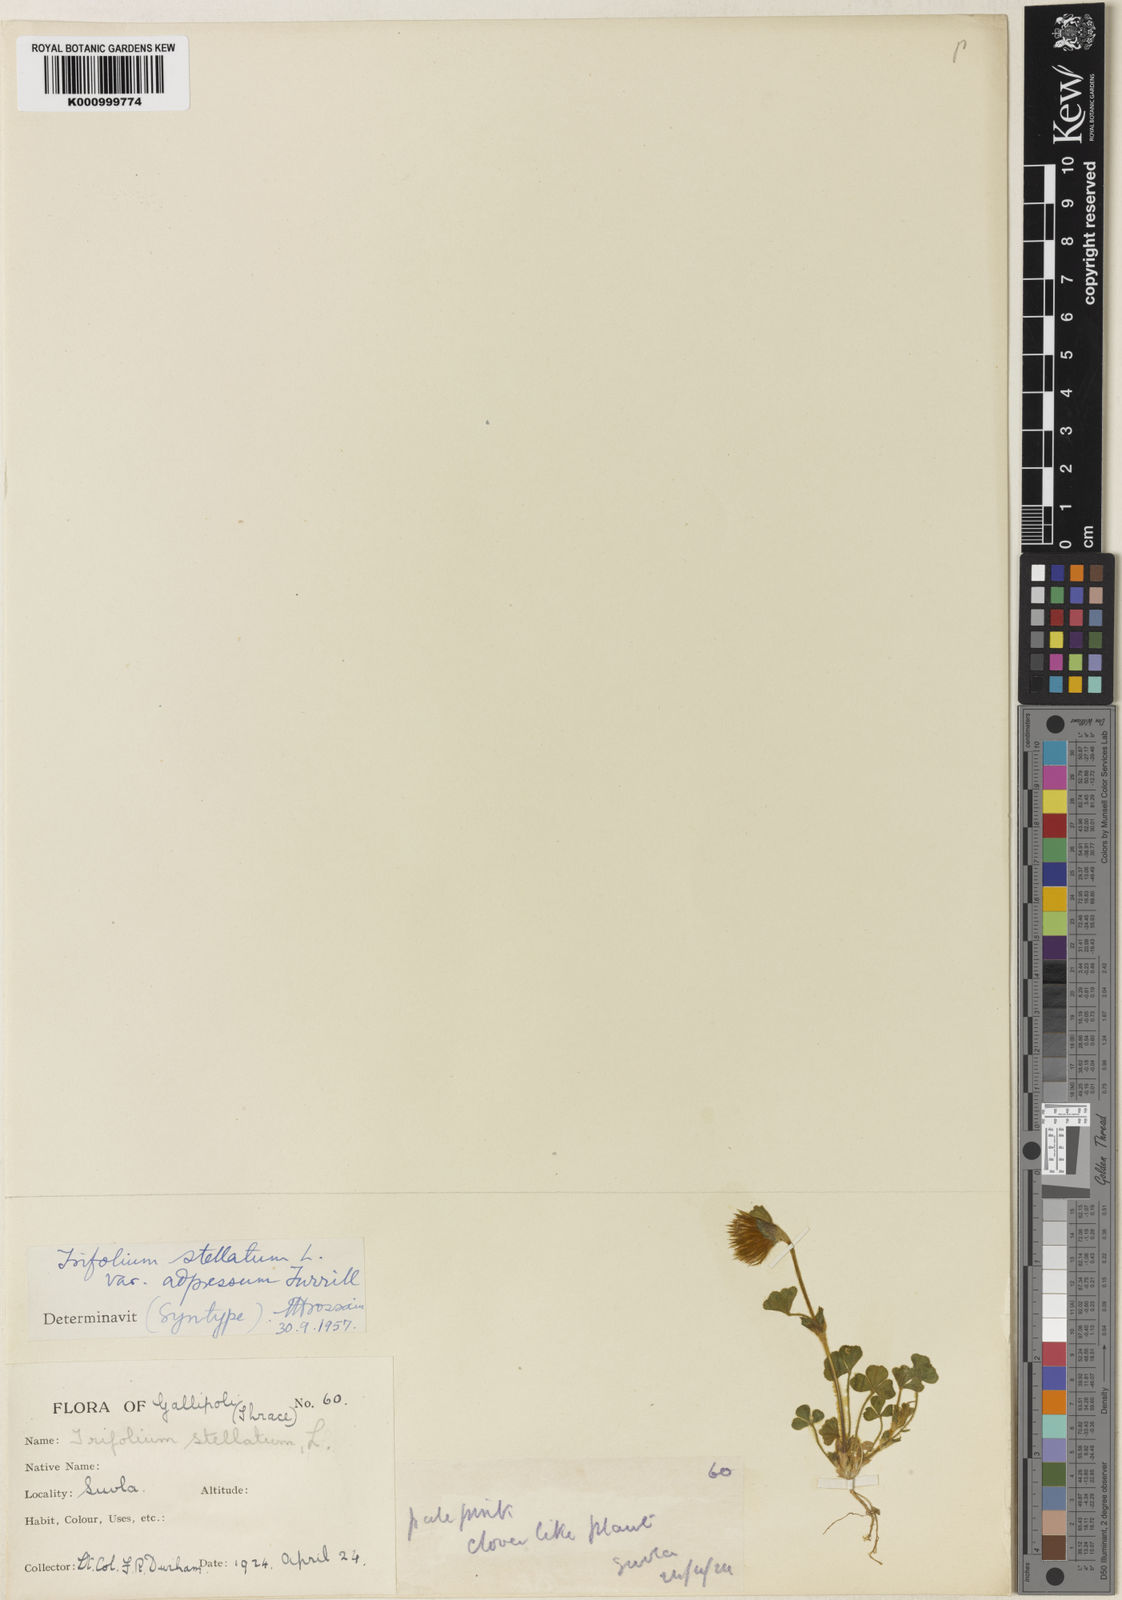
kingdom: Plantae
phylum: Tracheophyta
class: Magnoliopsida
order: Fabales
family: Fabaceae
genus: Trifolium
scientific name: Trifolium stellatum
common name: Starry clover
